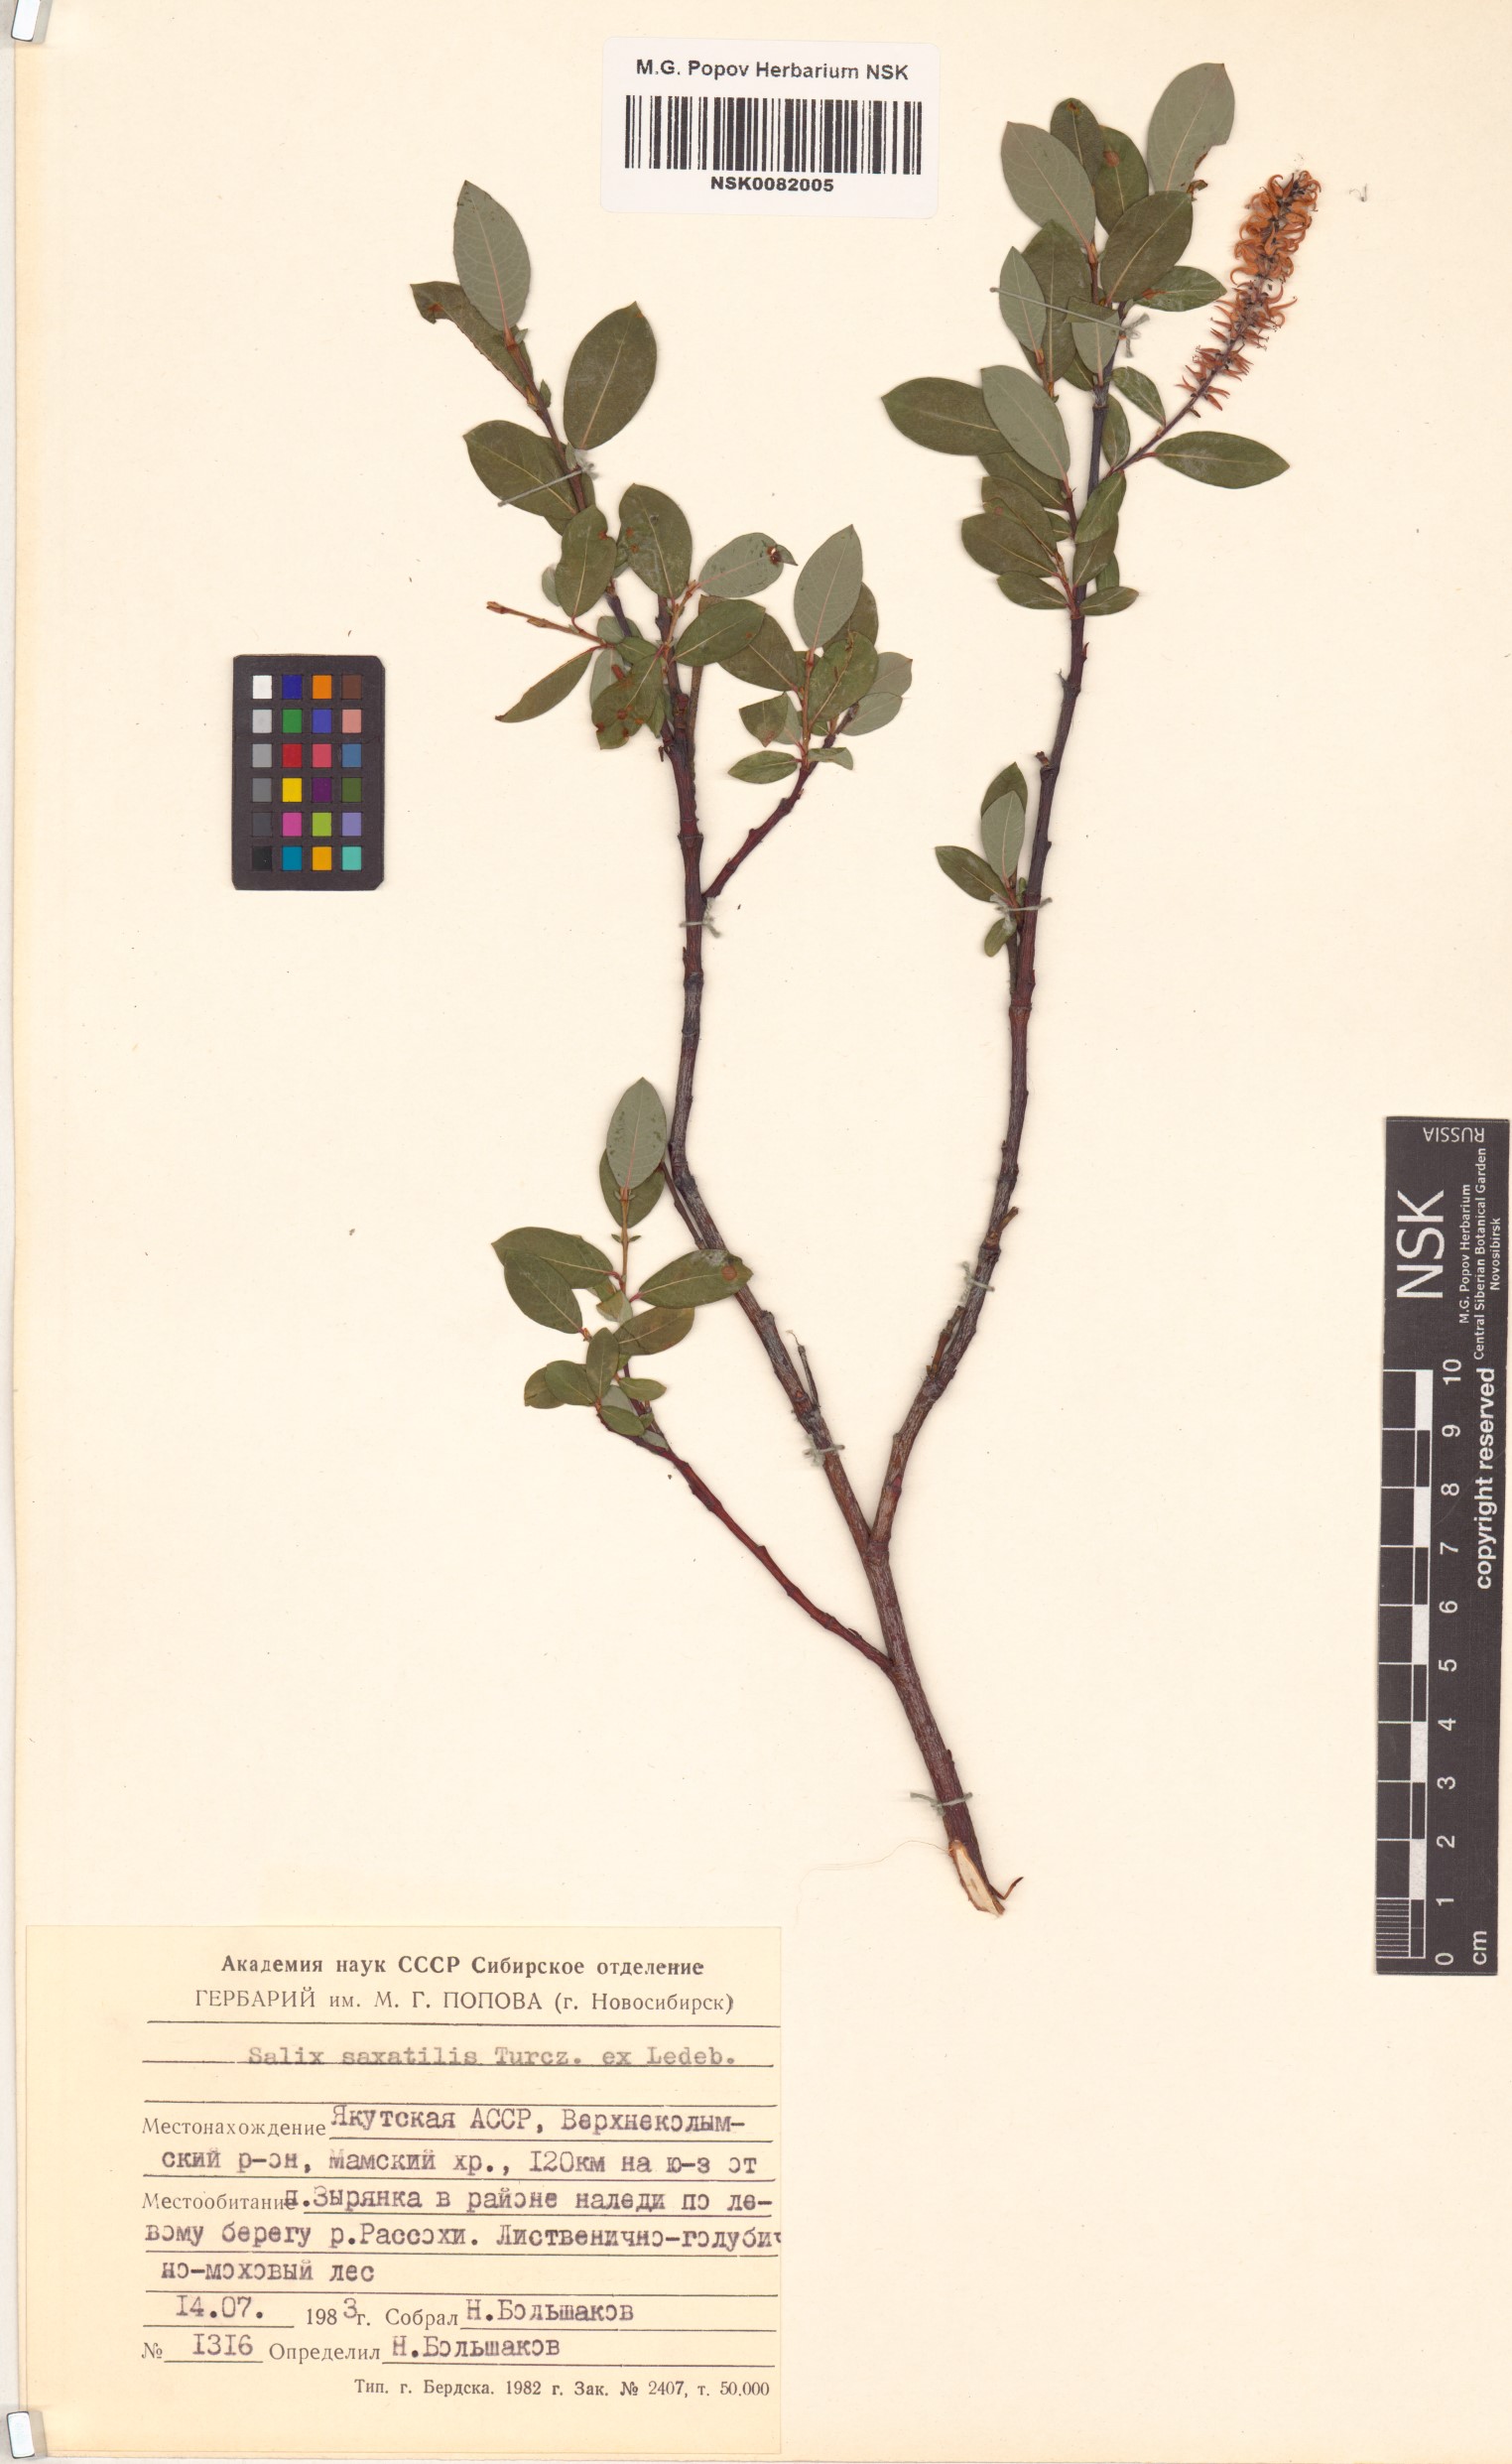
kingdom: Plantae
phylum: Tracheophyta
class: Magnoliopsida
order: Malpighiales
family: Salicaceae
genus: Salix
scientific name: Salix saxatilis
